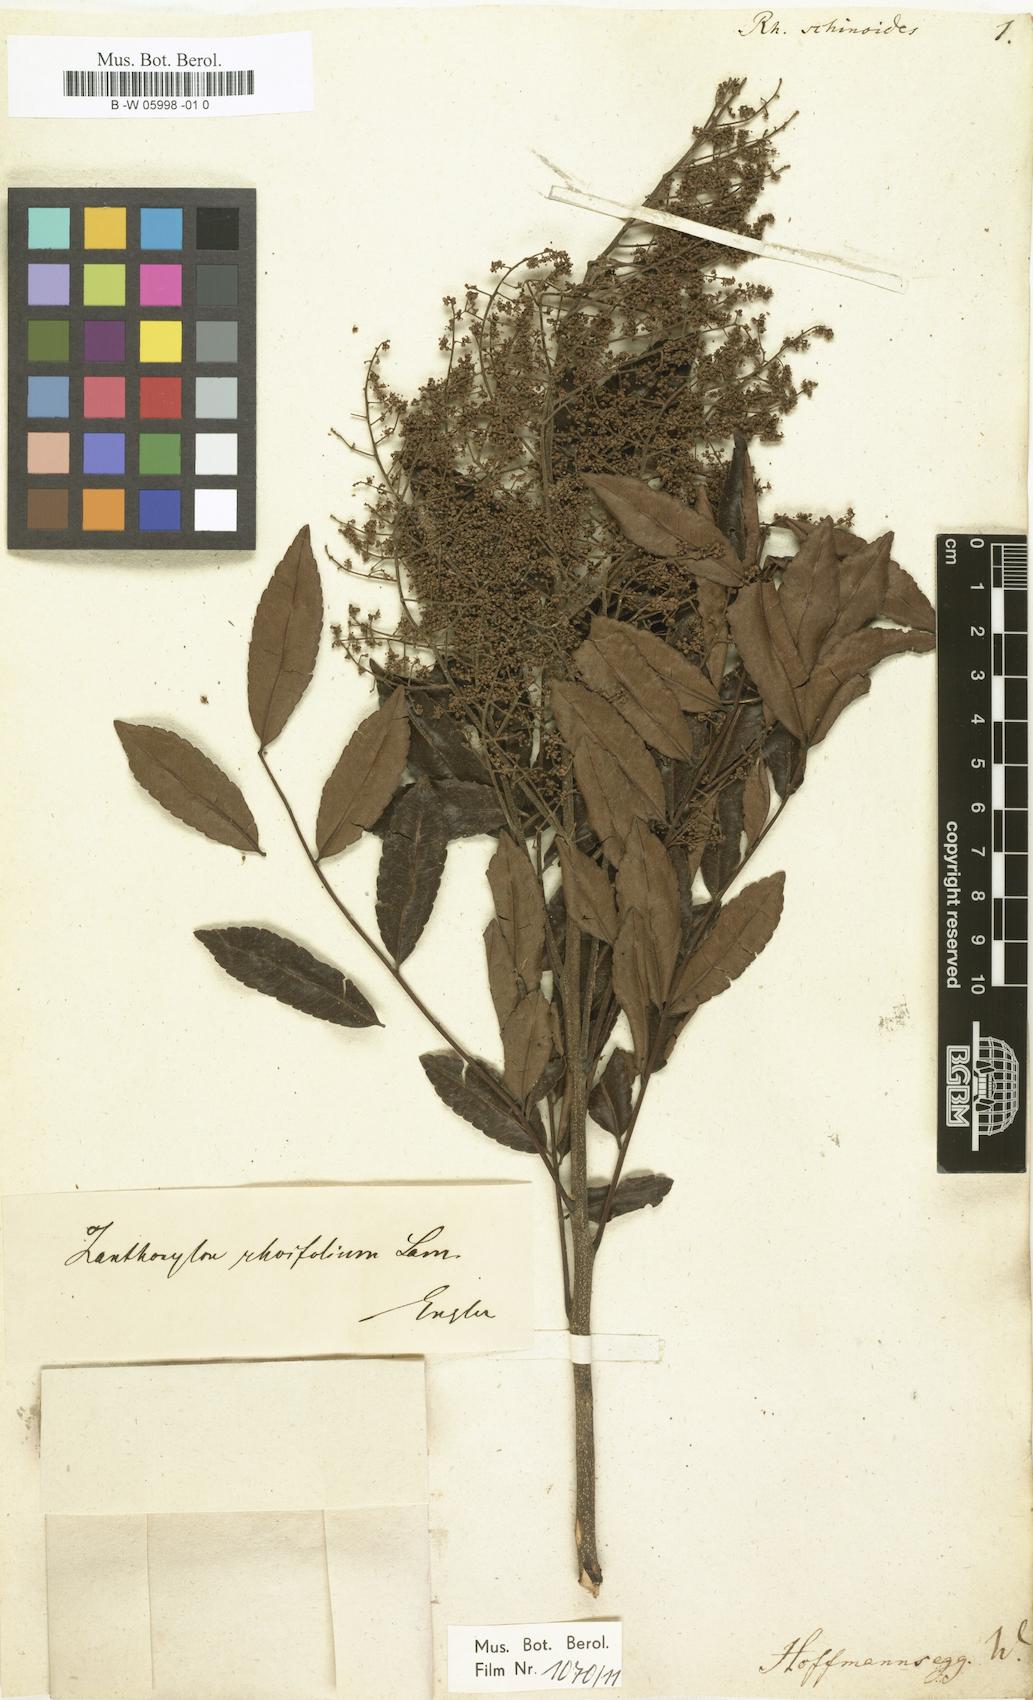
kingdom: Plantae
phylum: Tracheophyta
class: Magnoliopsida
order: Sapindales
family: Anacardiaceae
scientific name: Anacardiaceae
